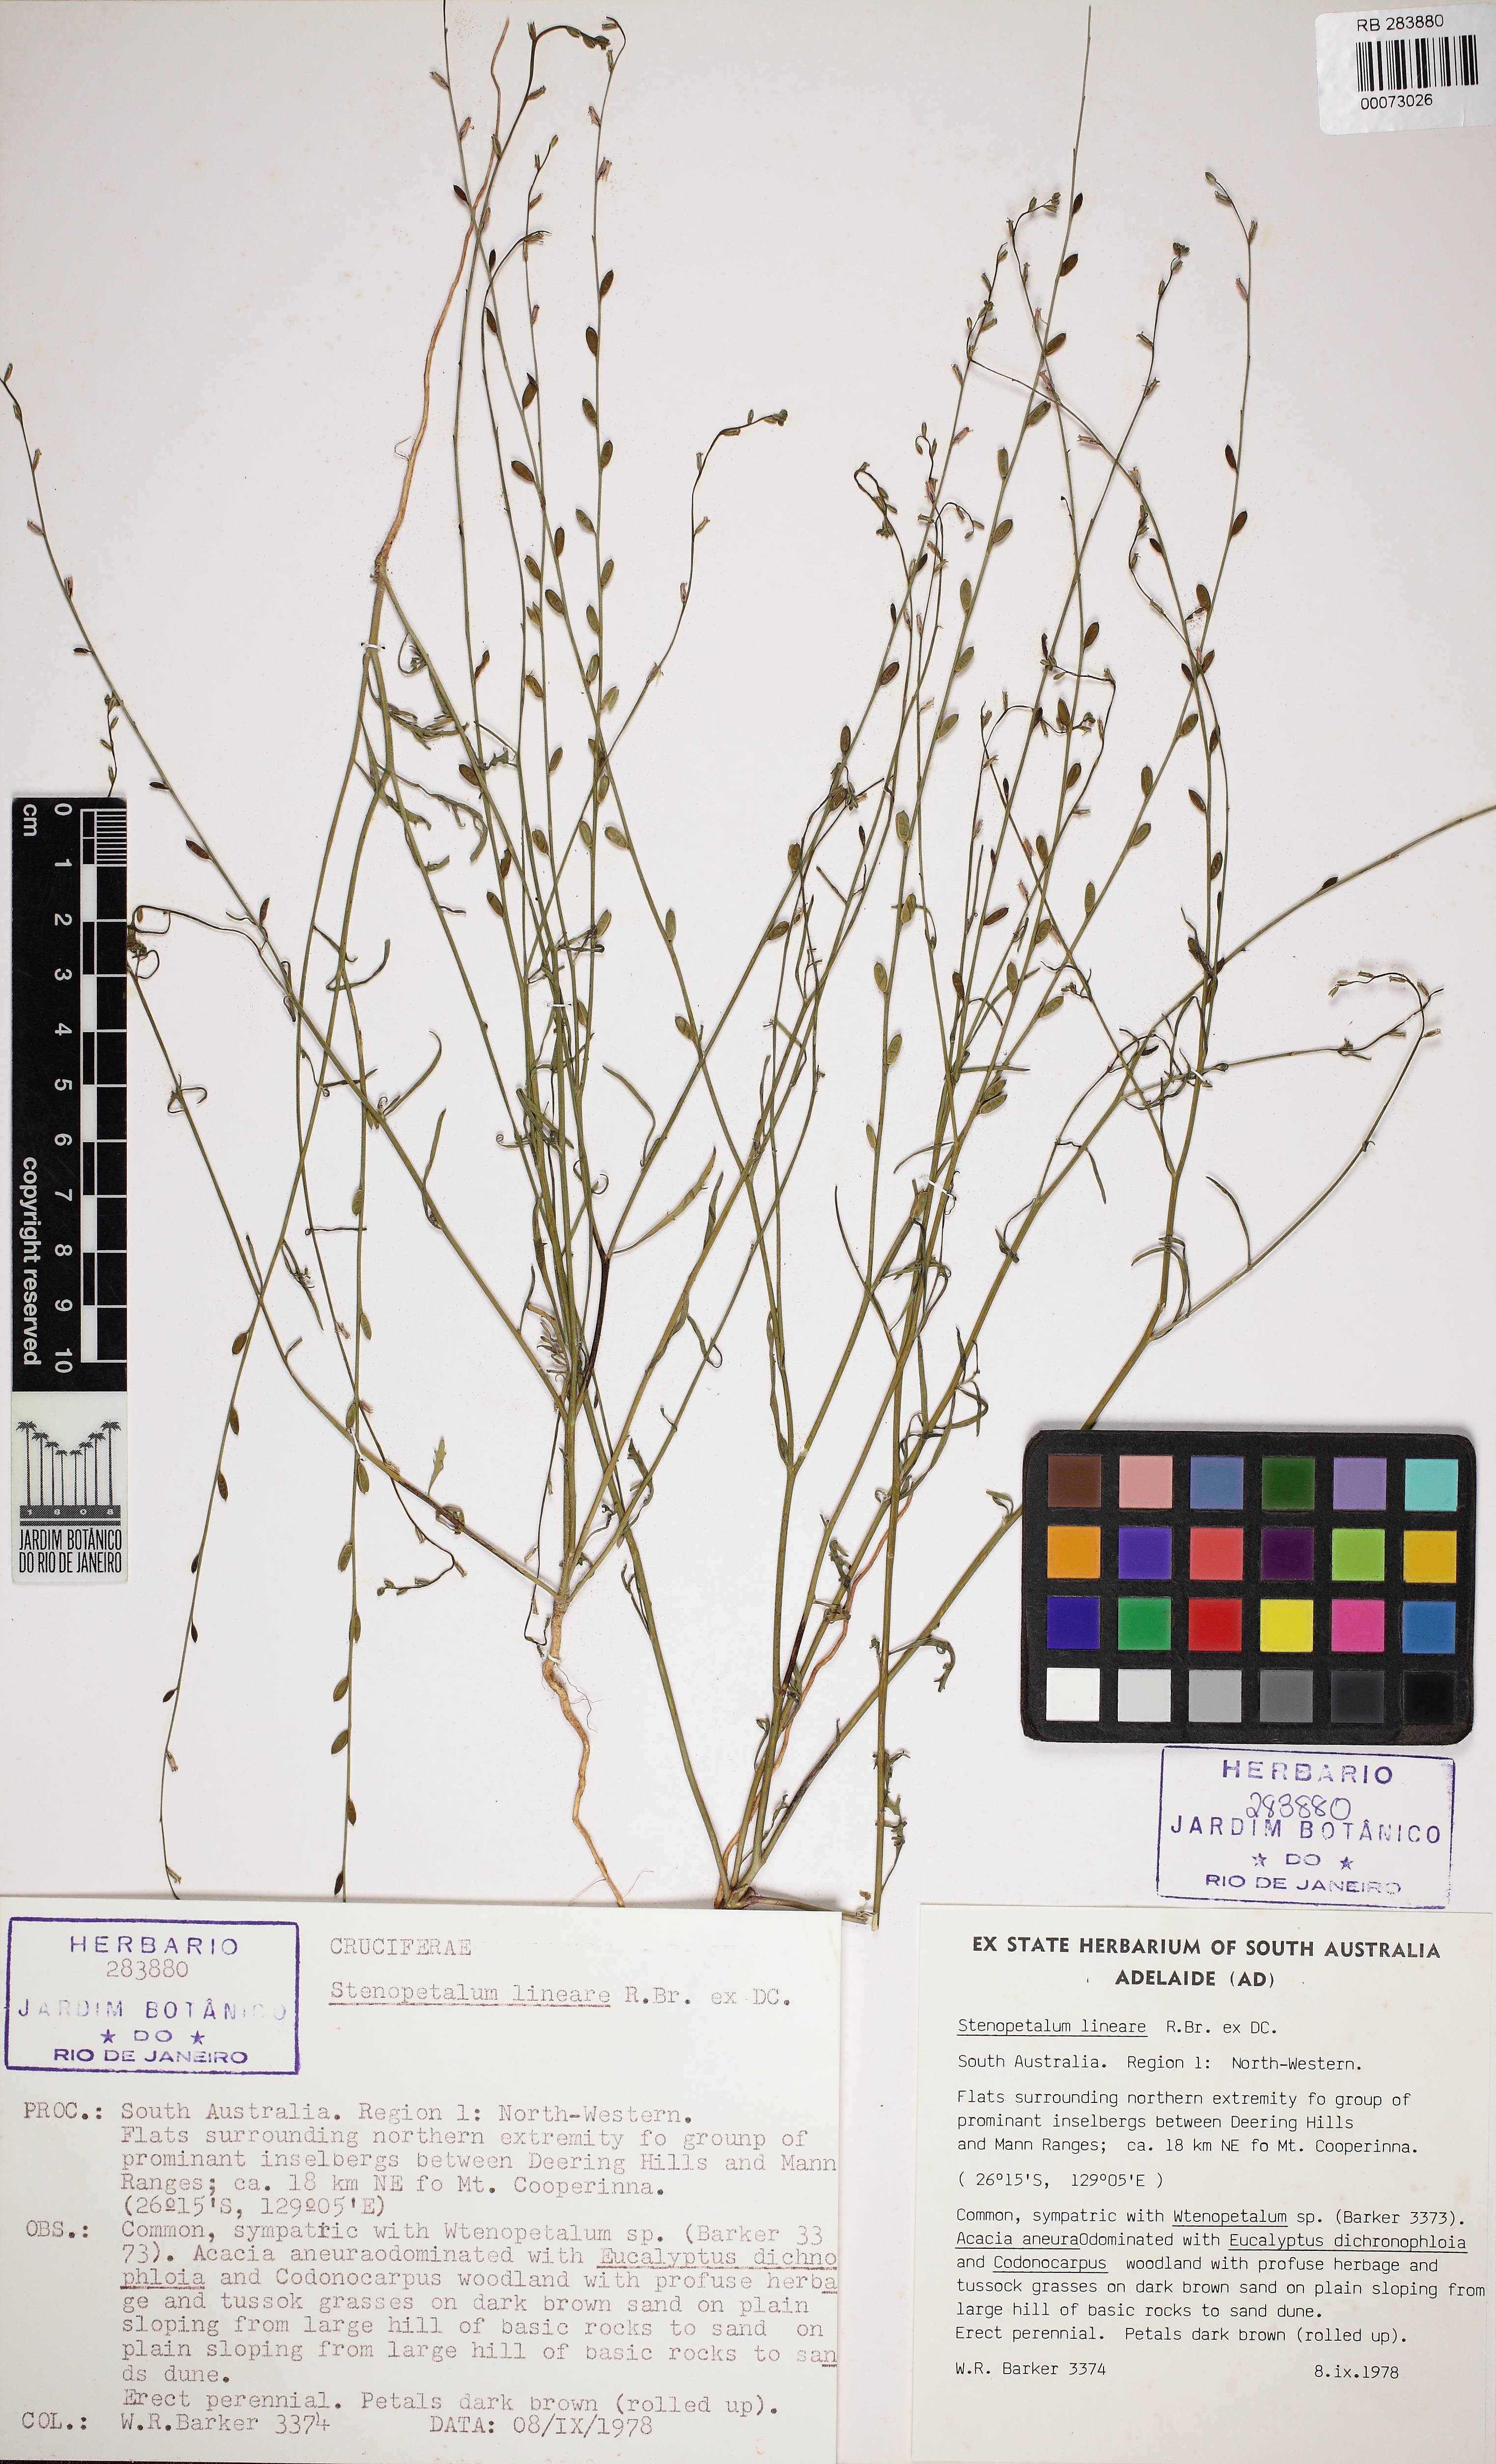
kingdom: Plantae
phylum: Tracheophyta
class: Magnoliopsida
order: Brassicales
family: Brassicaceae
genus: Stenopetalum
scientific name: Stenopetalum lineare
